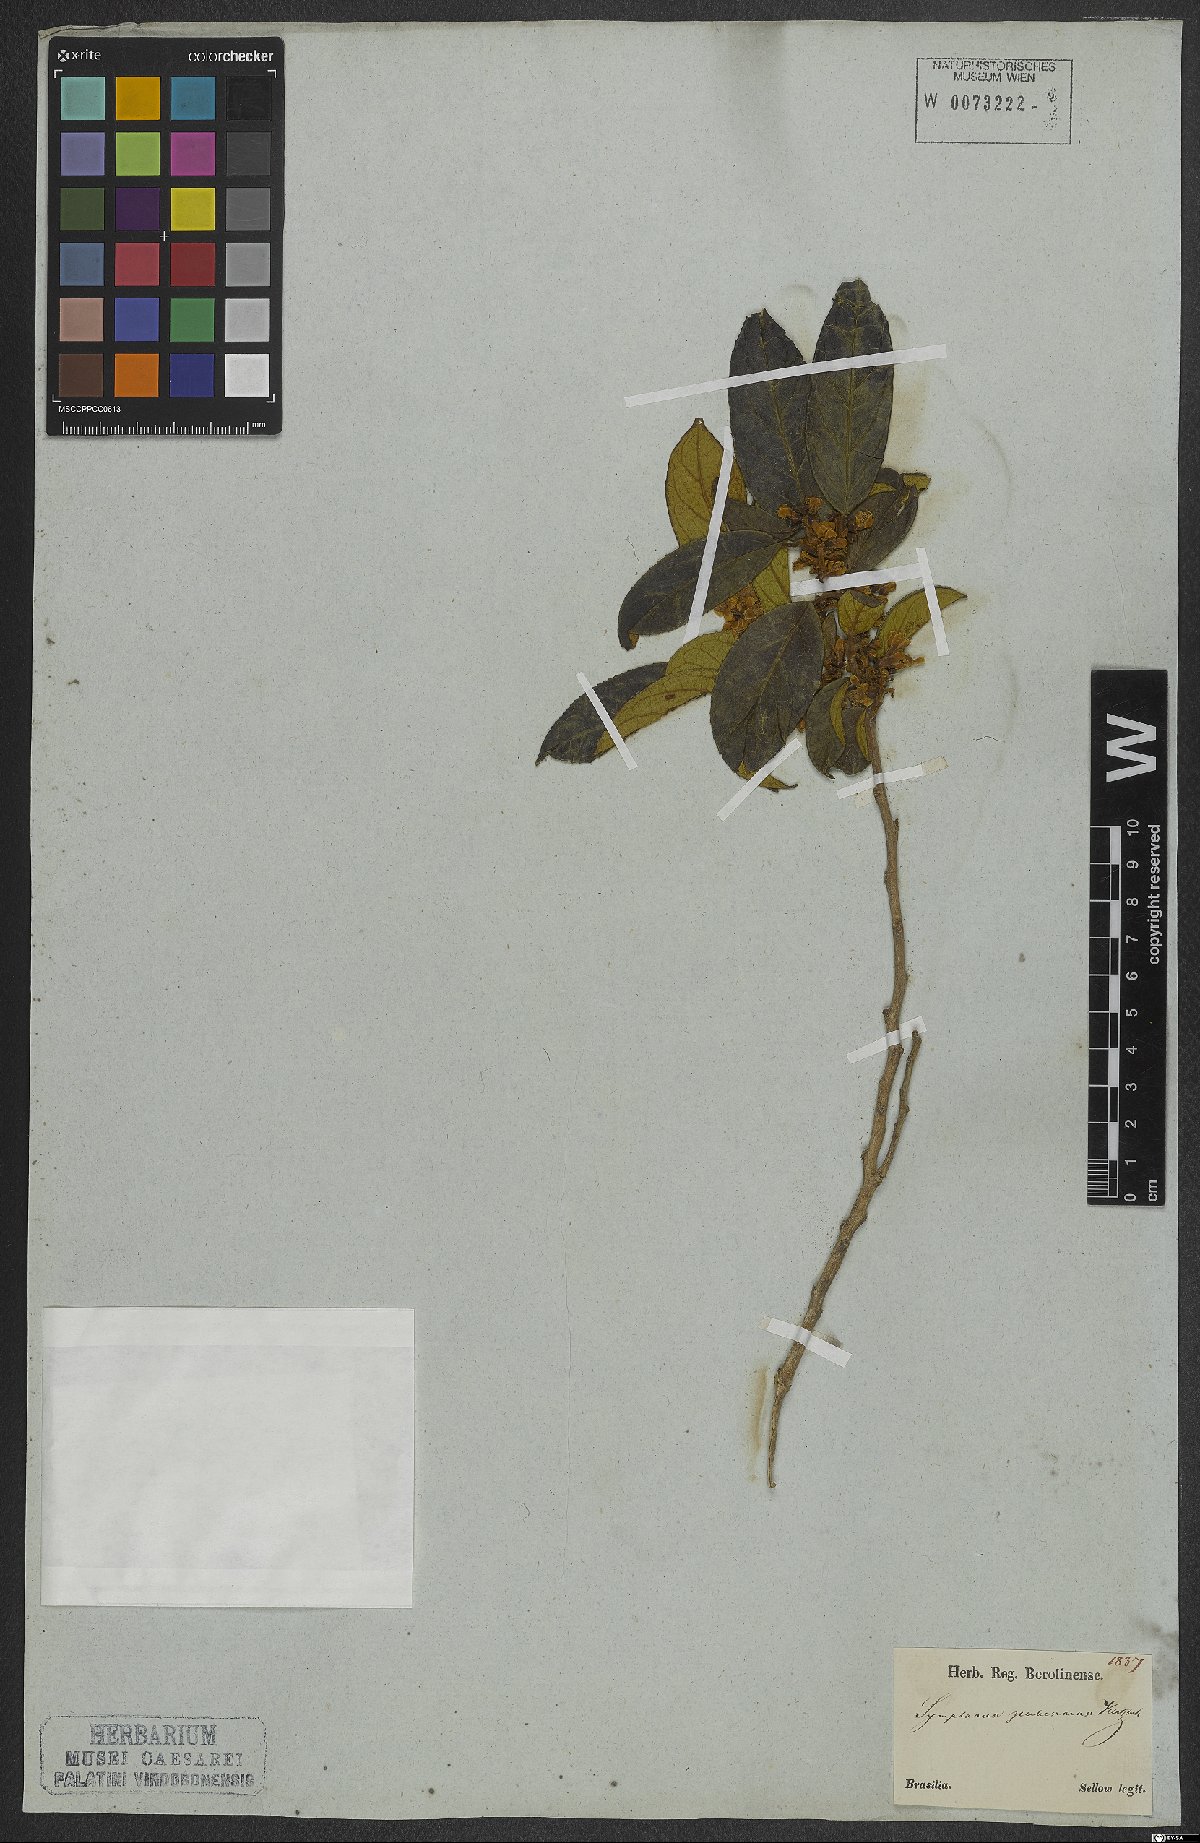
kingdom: Plantae
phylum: Tracheophyta
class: Magnoliopsida
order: Ericales
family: Symplocaceae
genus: Symplocos
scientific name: Symplocos pubescens
